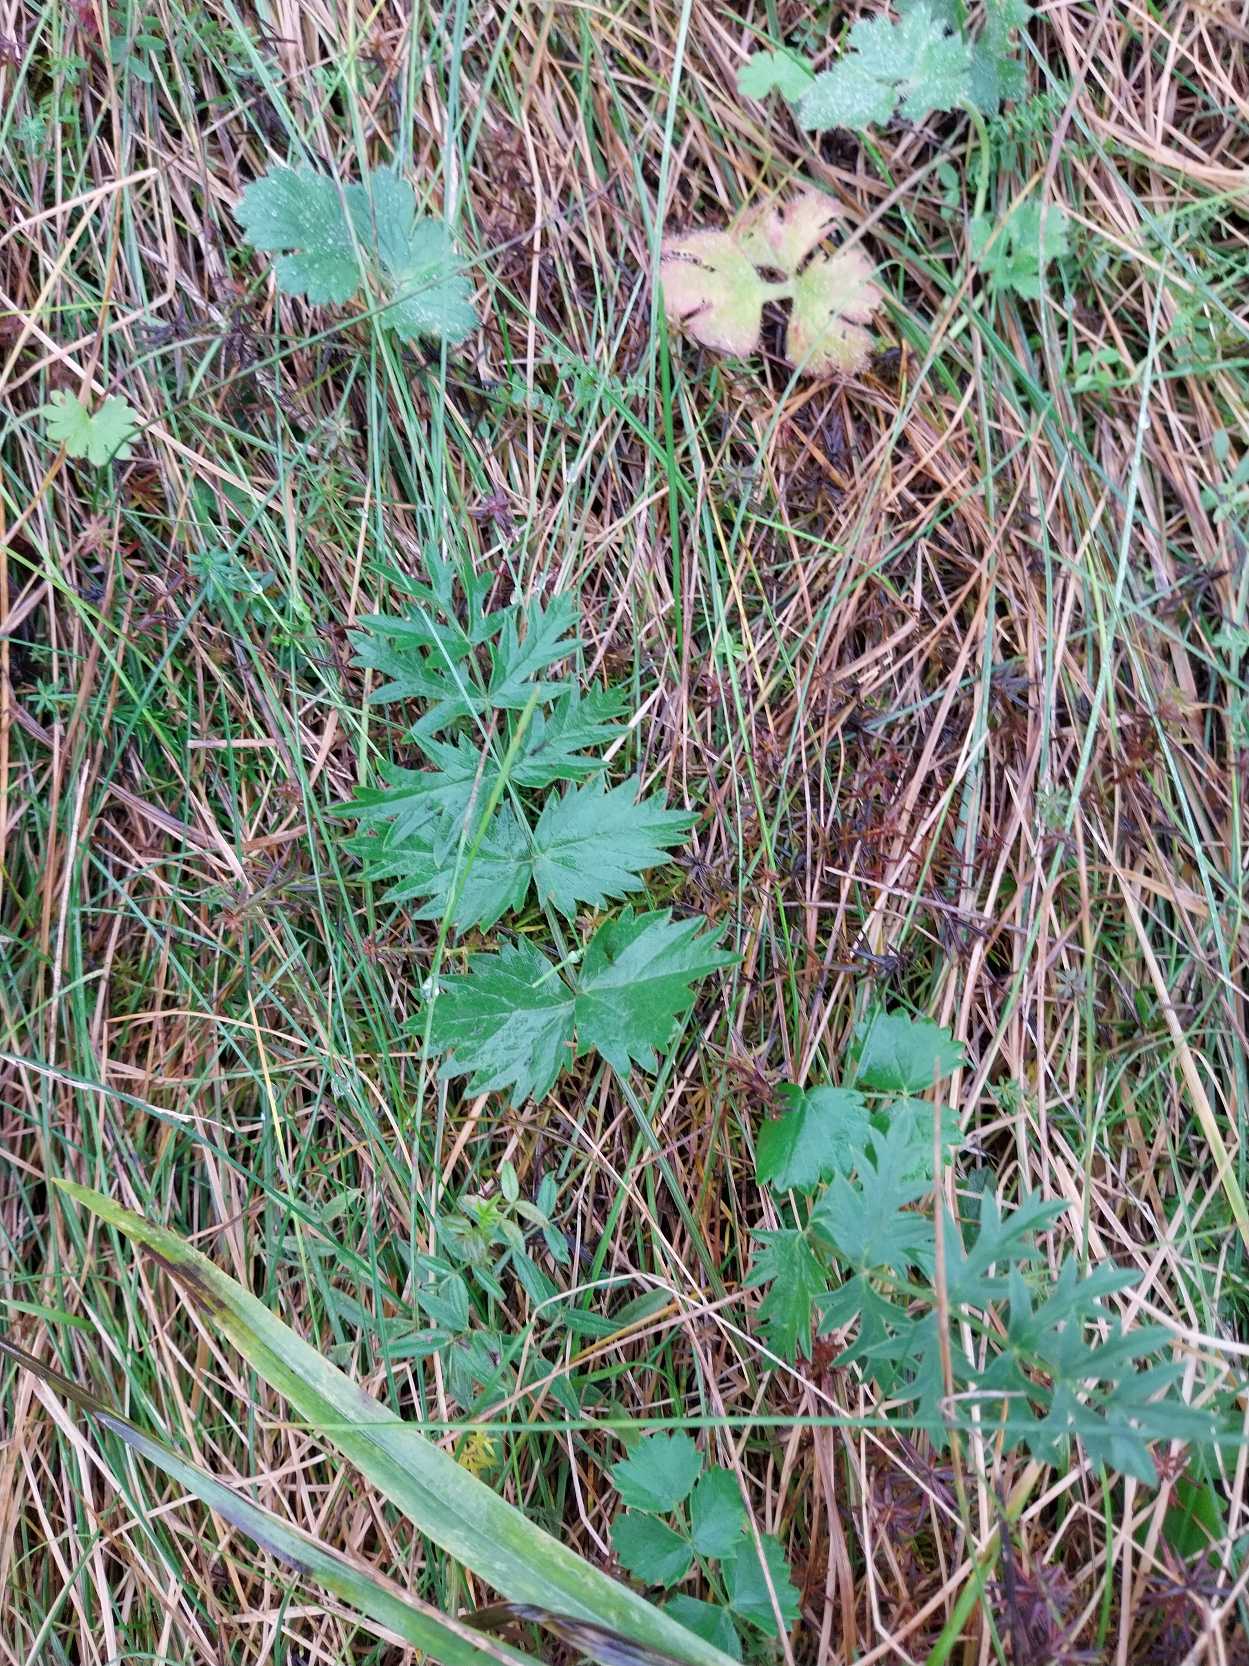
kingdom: Plantae
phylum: Tracheophyta
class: Magnoliopsida
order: Apiales
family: Apiaceae
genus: Pimpinella
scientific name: Pimpinella saxifraga
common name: Almindelig pimpinelle
